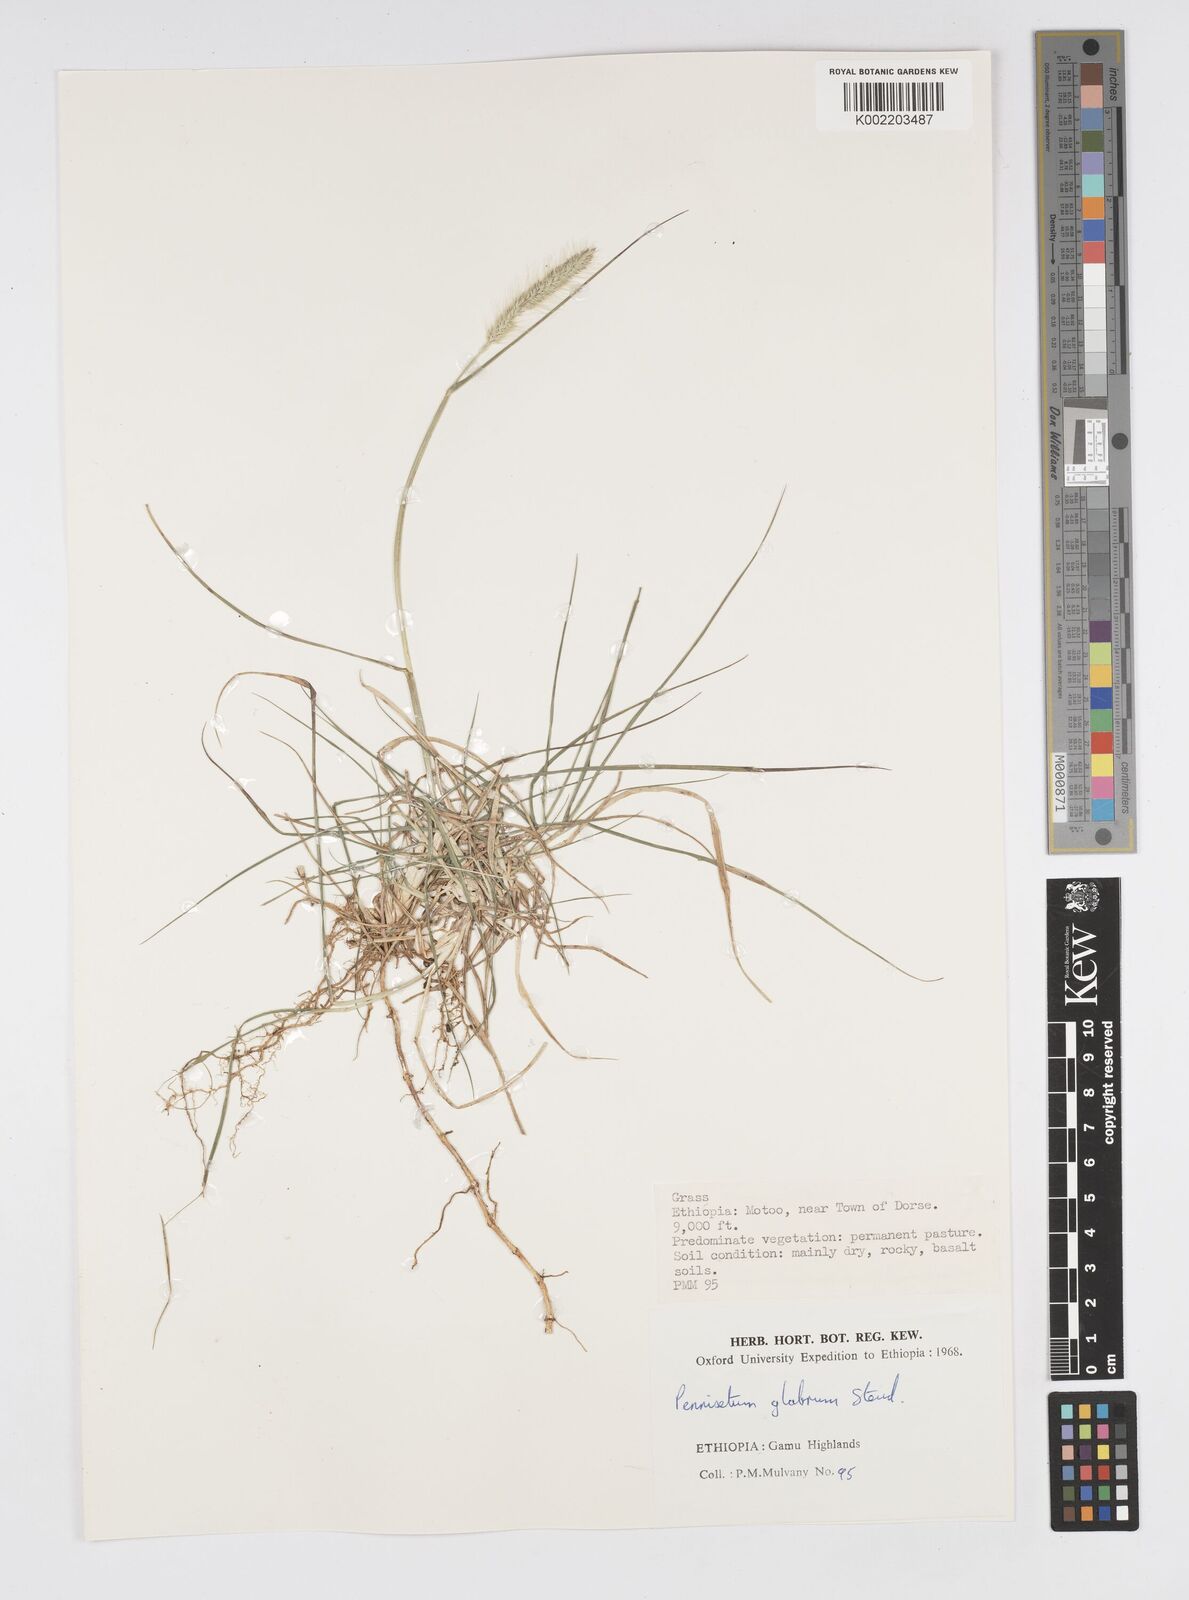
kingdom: Plantae
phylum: Tracheophyta
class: Liliopsida
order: Poales
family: Poaceae
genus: Cenchrus
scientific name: Cenchrus geniculatus
